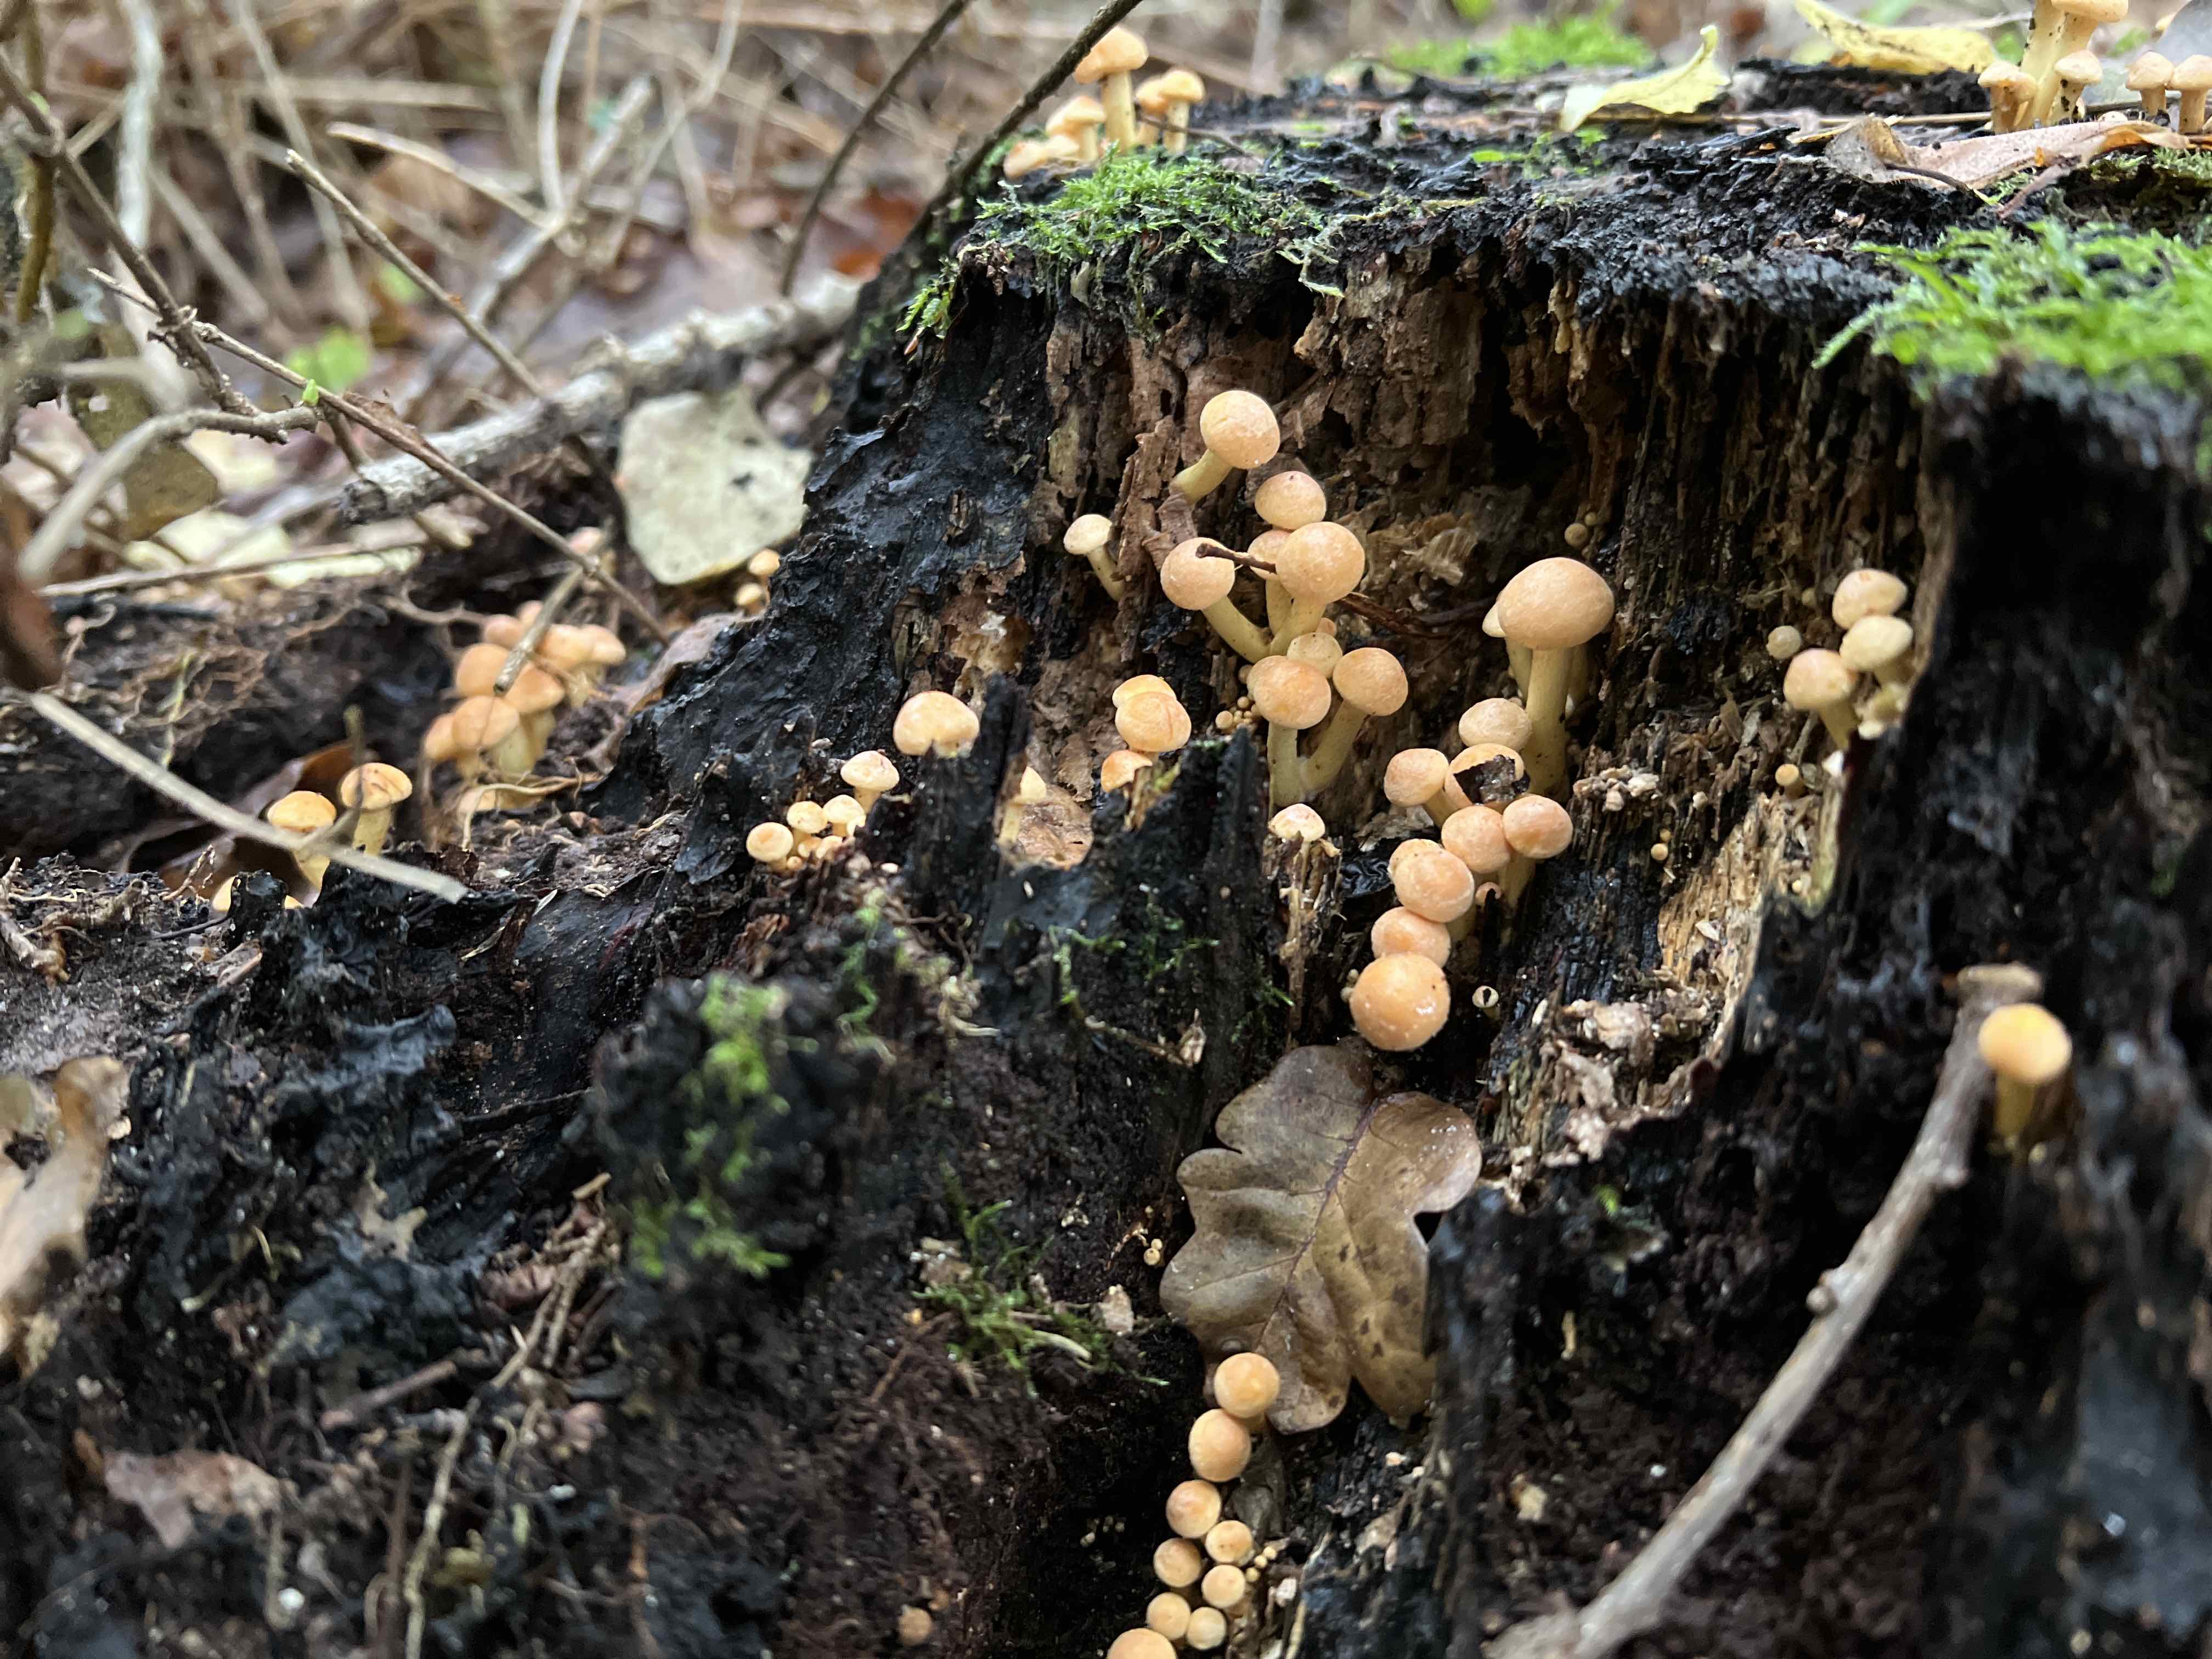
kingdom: Fungi
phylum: Basidiomycota
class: Agaricomycetes
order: Agaricales
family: Strophariaceae
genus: Kuehneromyces
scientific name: Kuehneromyces mutabilis
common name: foranderlig skælhat
